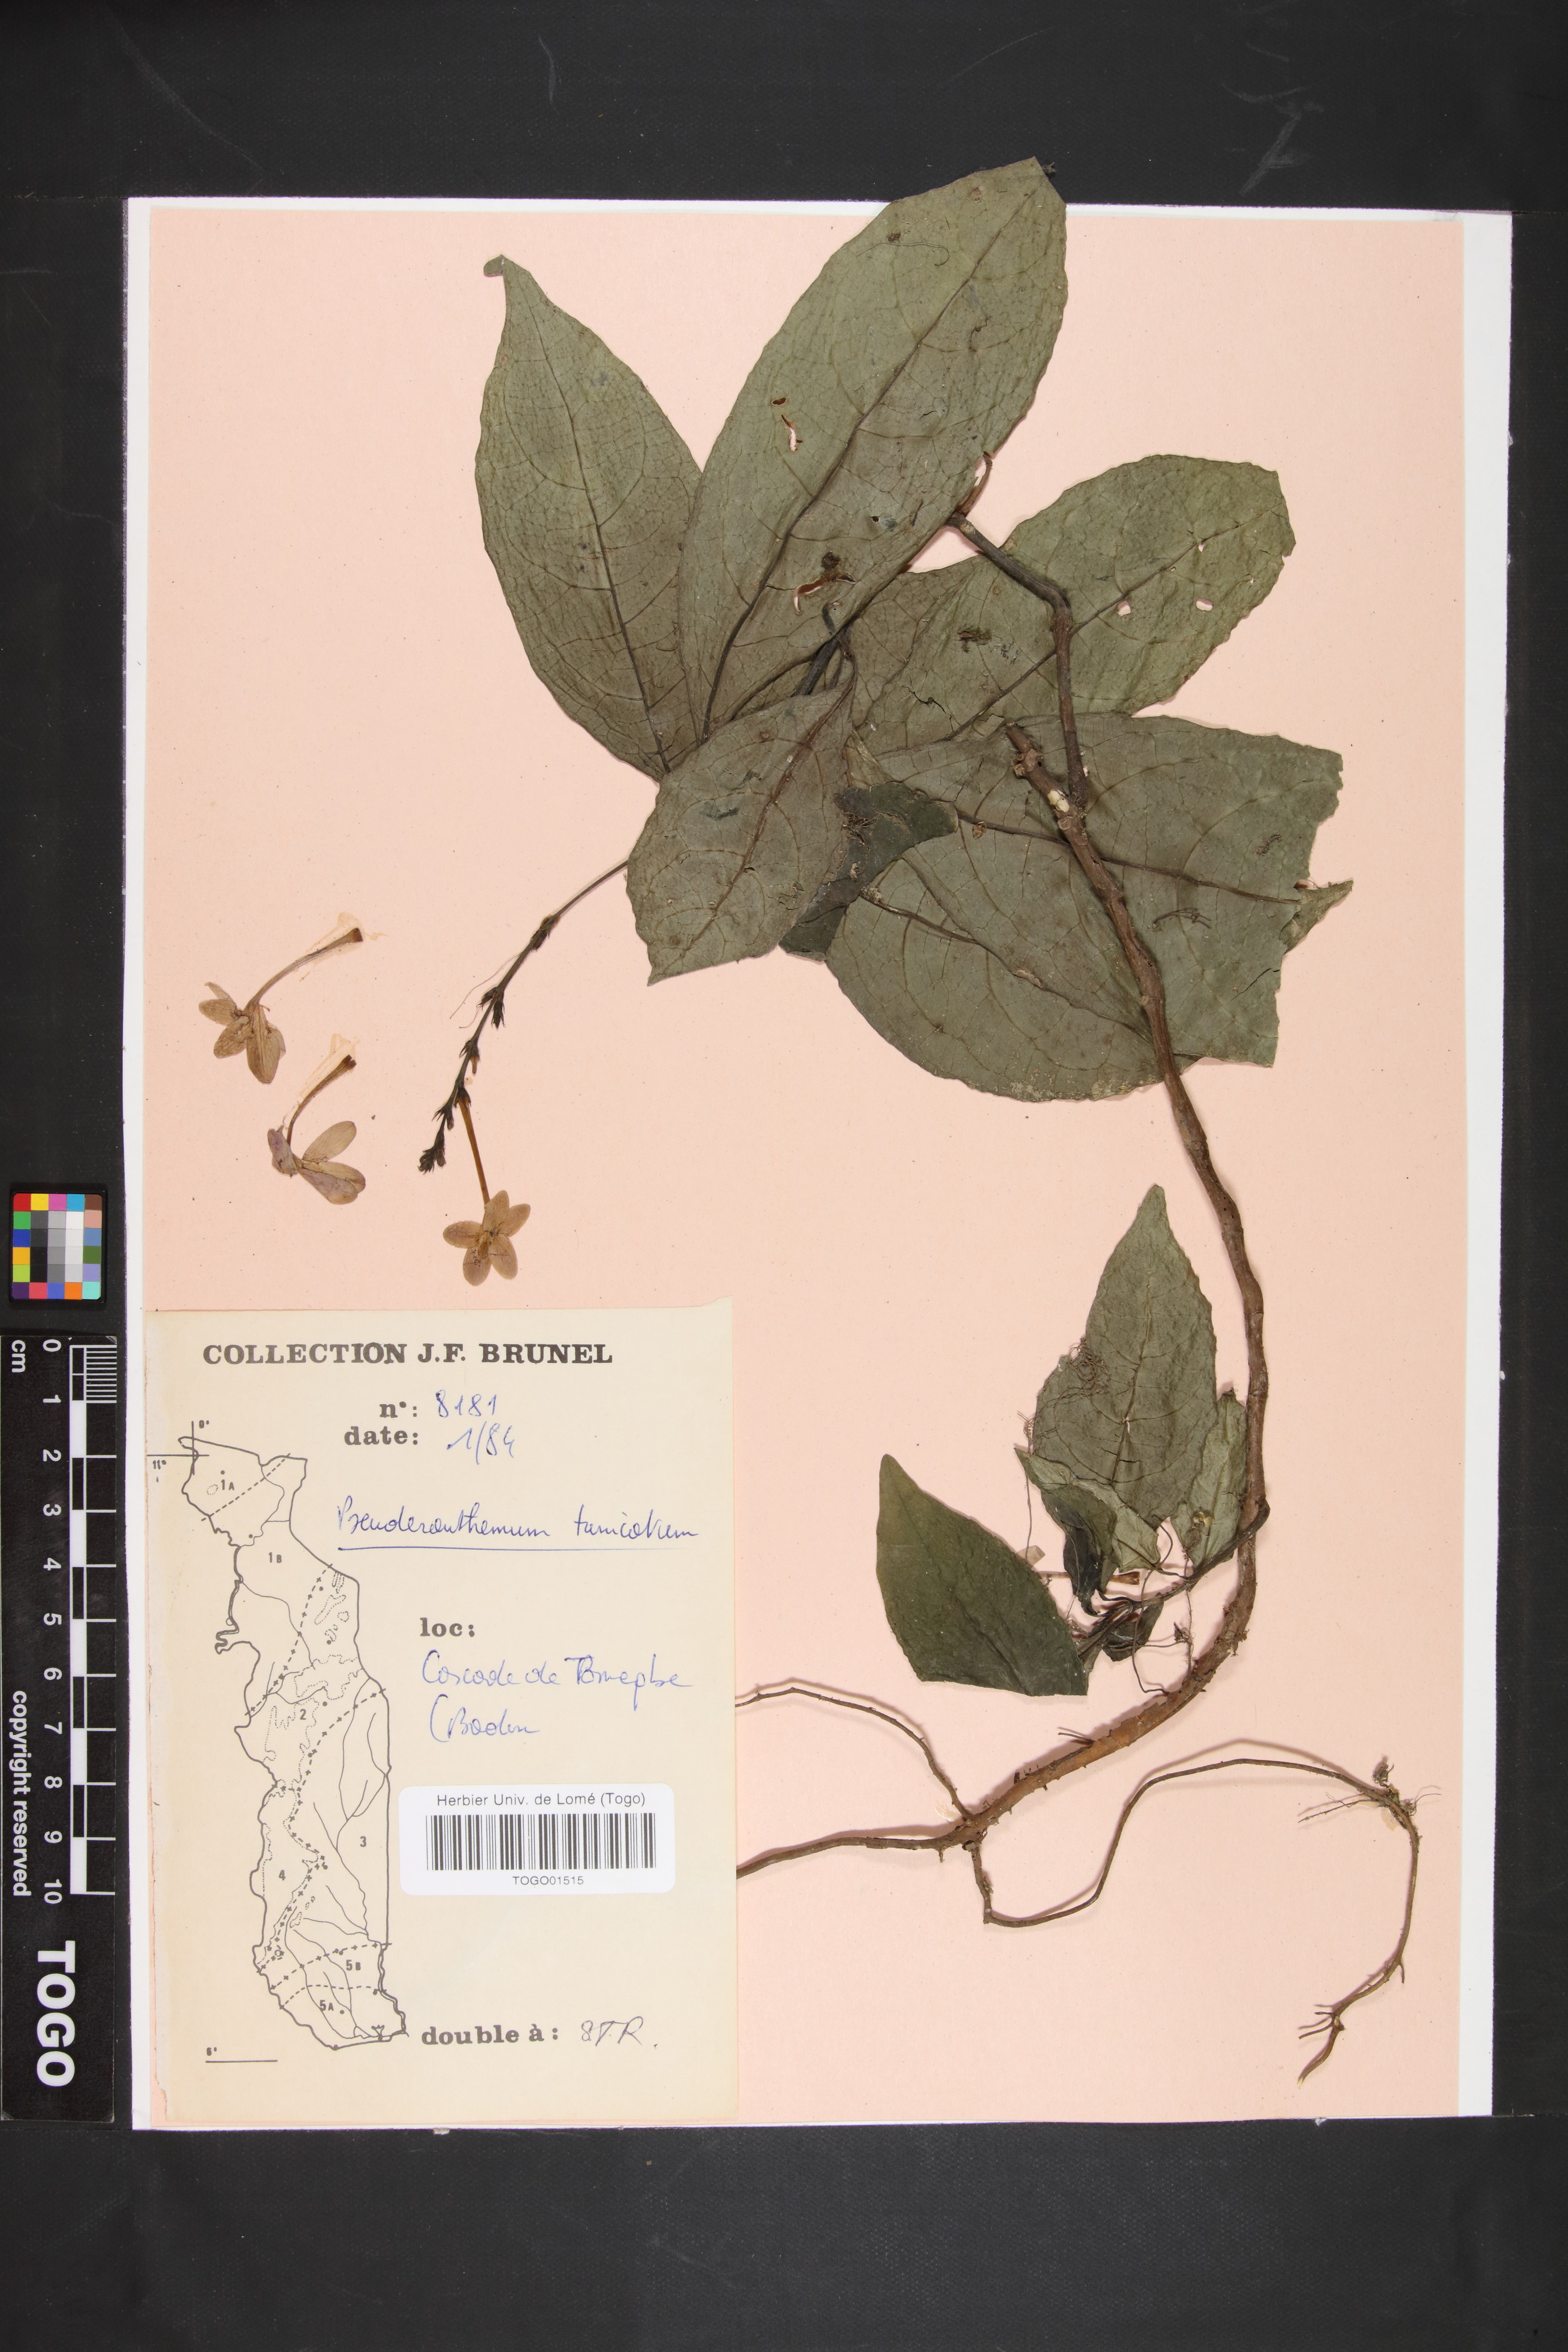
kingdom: Plantae
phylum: Tracheophyta
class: Magnoliopsida
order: Lamiales
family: Acanthaceae
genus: Pseuderanthemum
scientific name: Pseuderanthemum tunicatum
